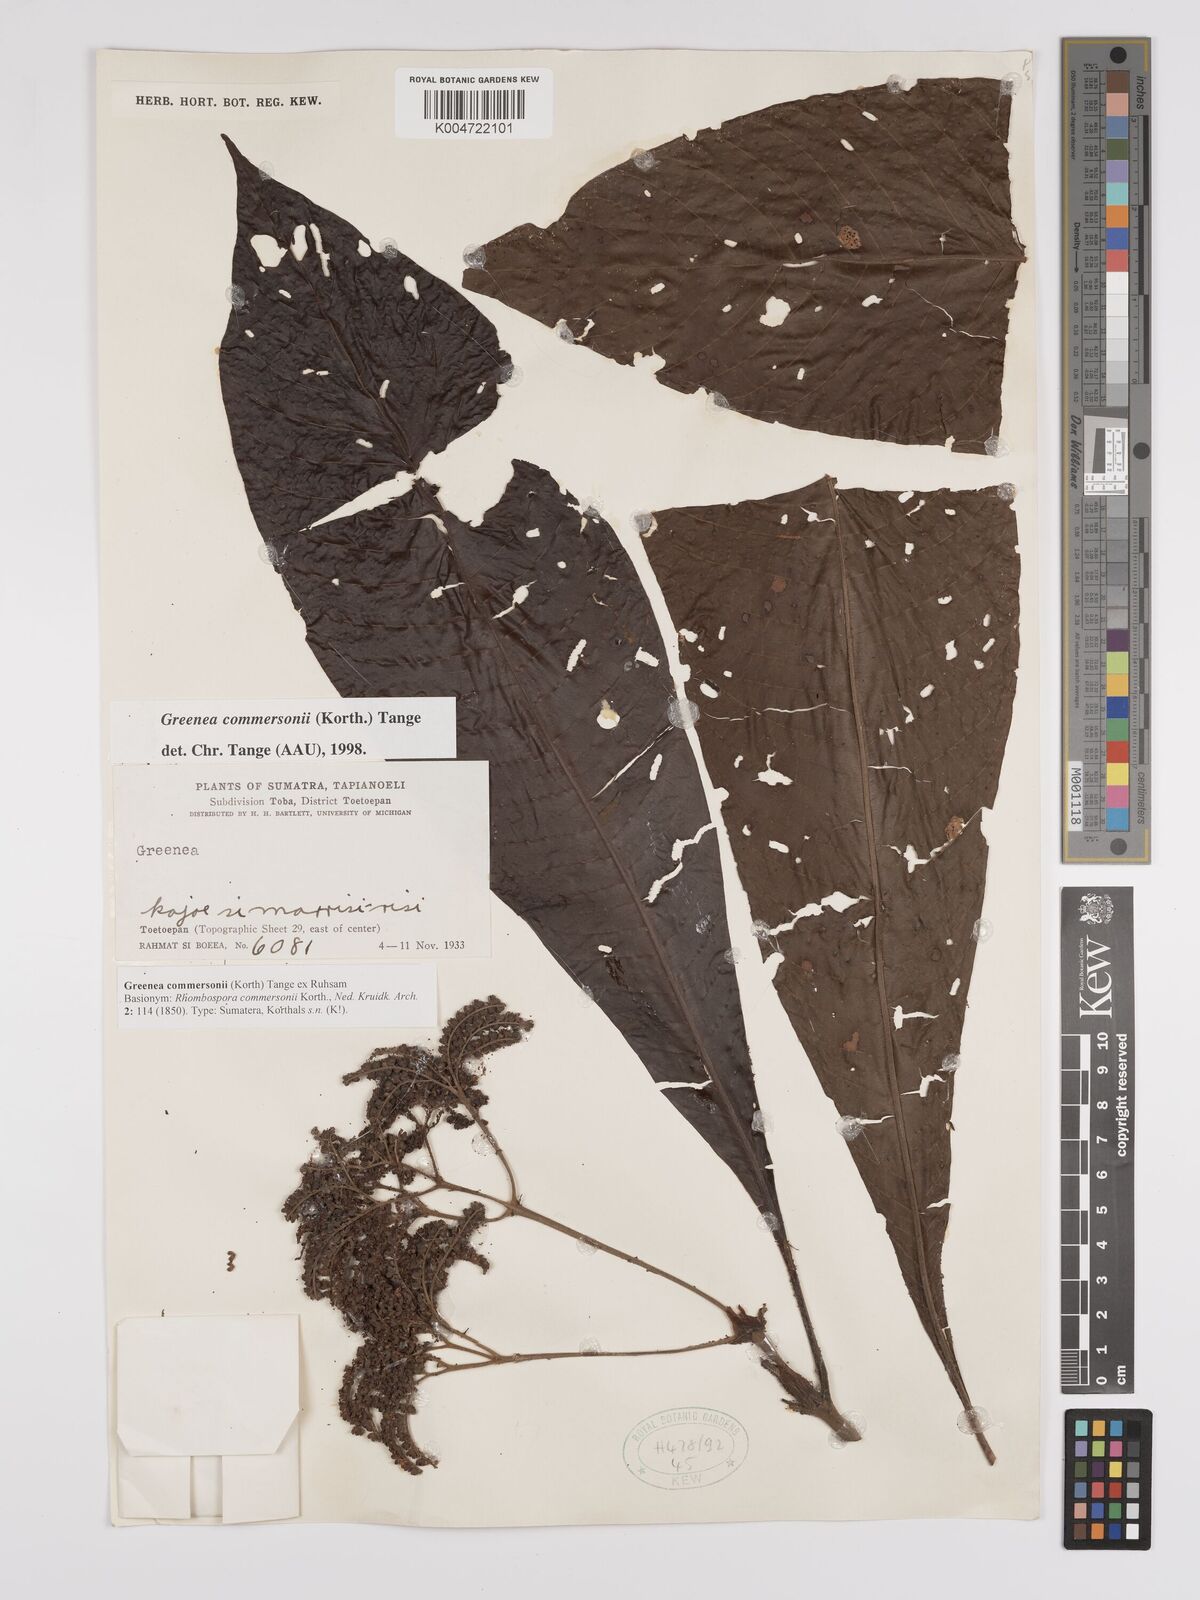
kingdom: Plantae
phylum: Tracheophyta
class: Magnoliopsida
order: Gentianales
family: Rubiaceae
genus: Greenea
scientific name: Greenea commersonii
